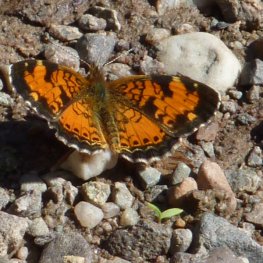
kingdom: Animalia
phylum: Arthropoda
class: Insecta
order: Lepidoptera
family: Nymphalidae
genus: Phyciodes
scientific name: Phyciodes tharos
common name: Northern Crescent
